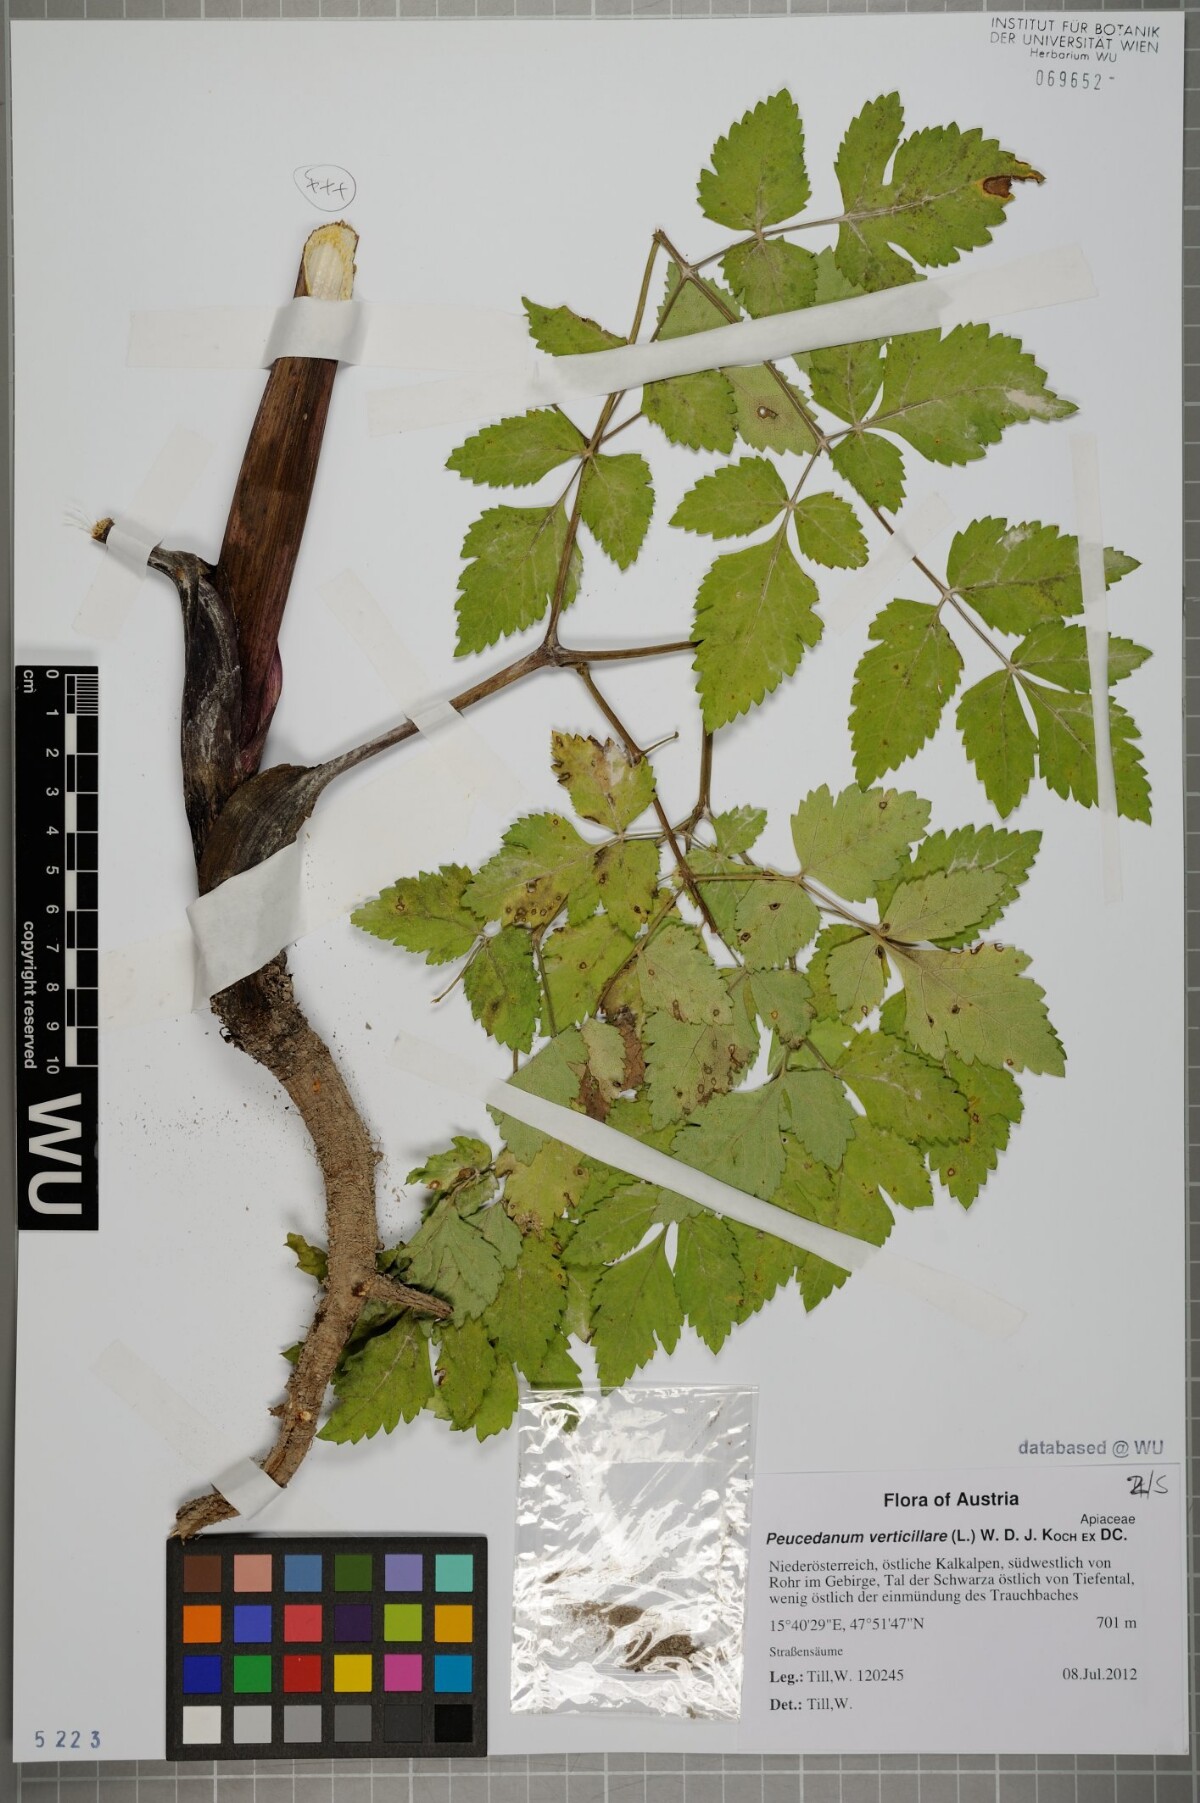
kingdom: Plantae
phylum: Tracheophyta
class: Magnoliopsida
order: Apiales
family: Apiaceae
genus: Tommasinia
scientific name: Tommasinia altissima
